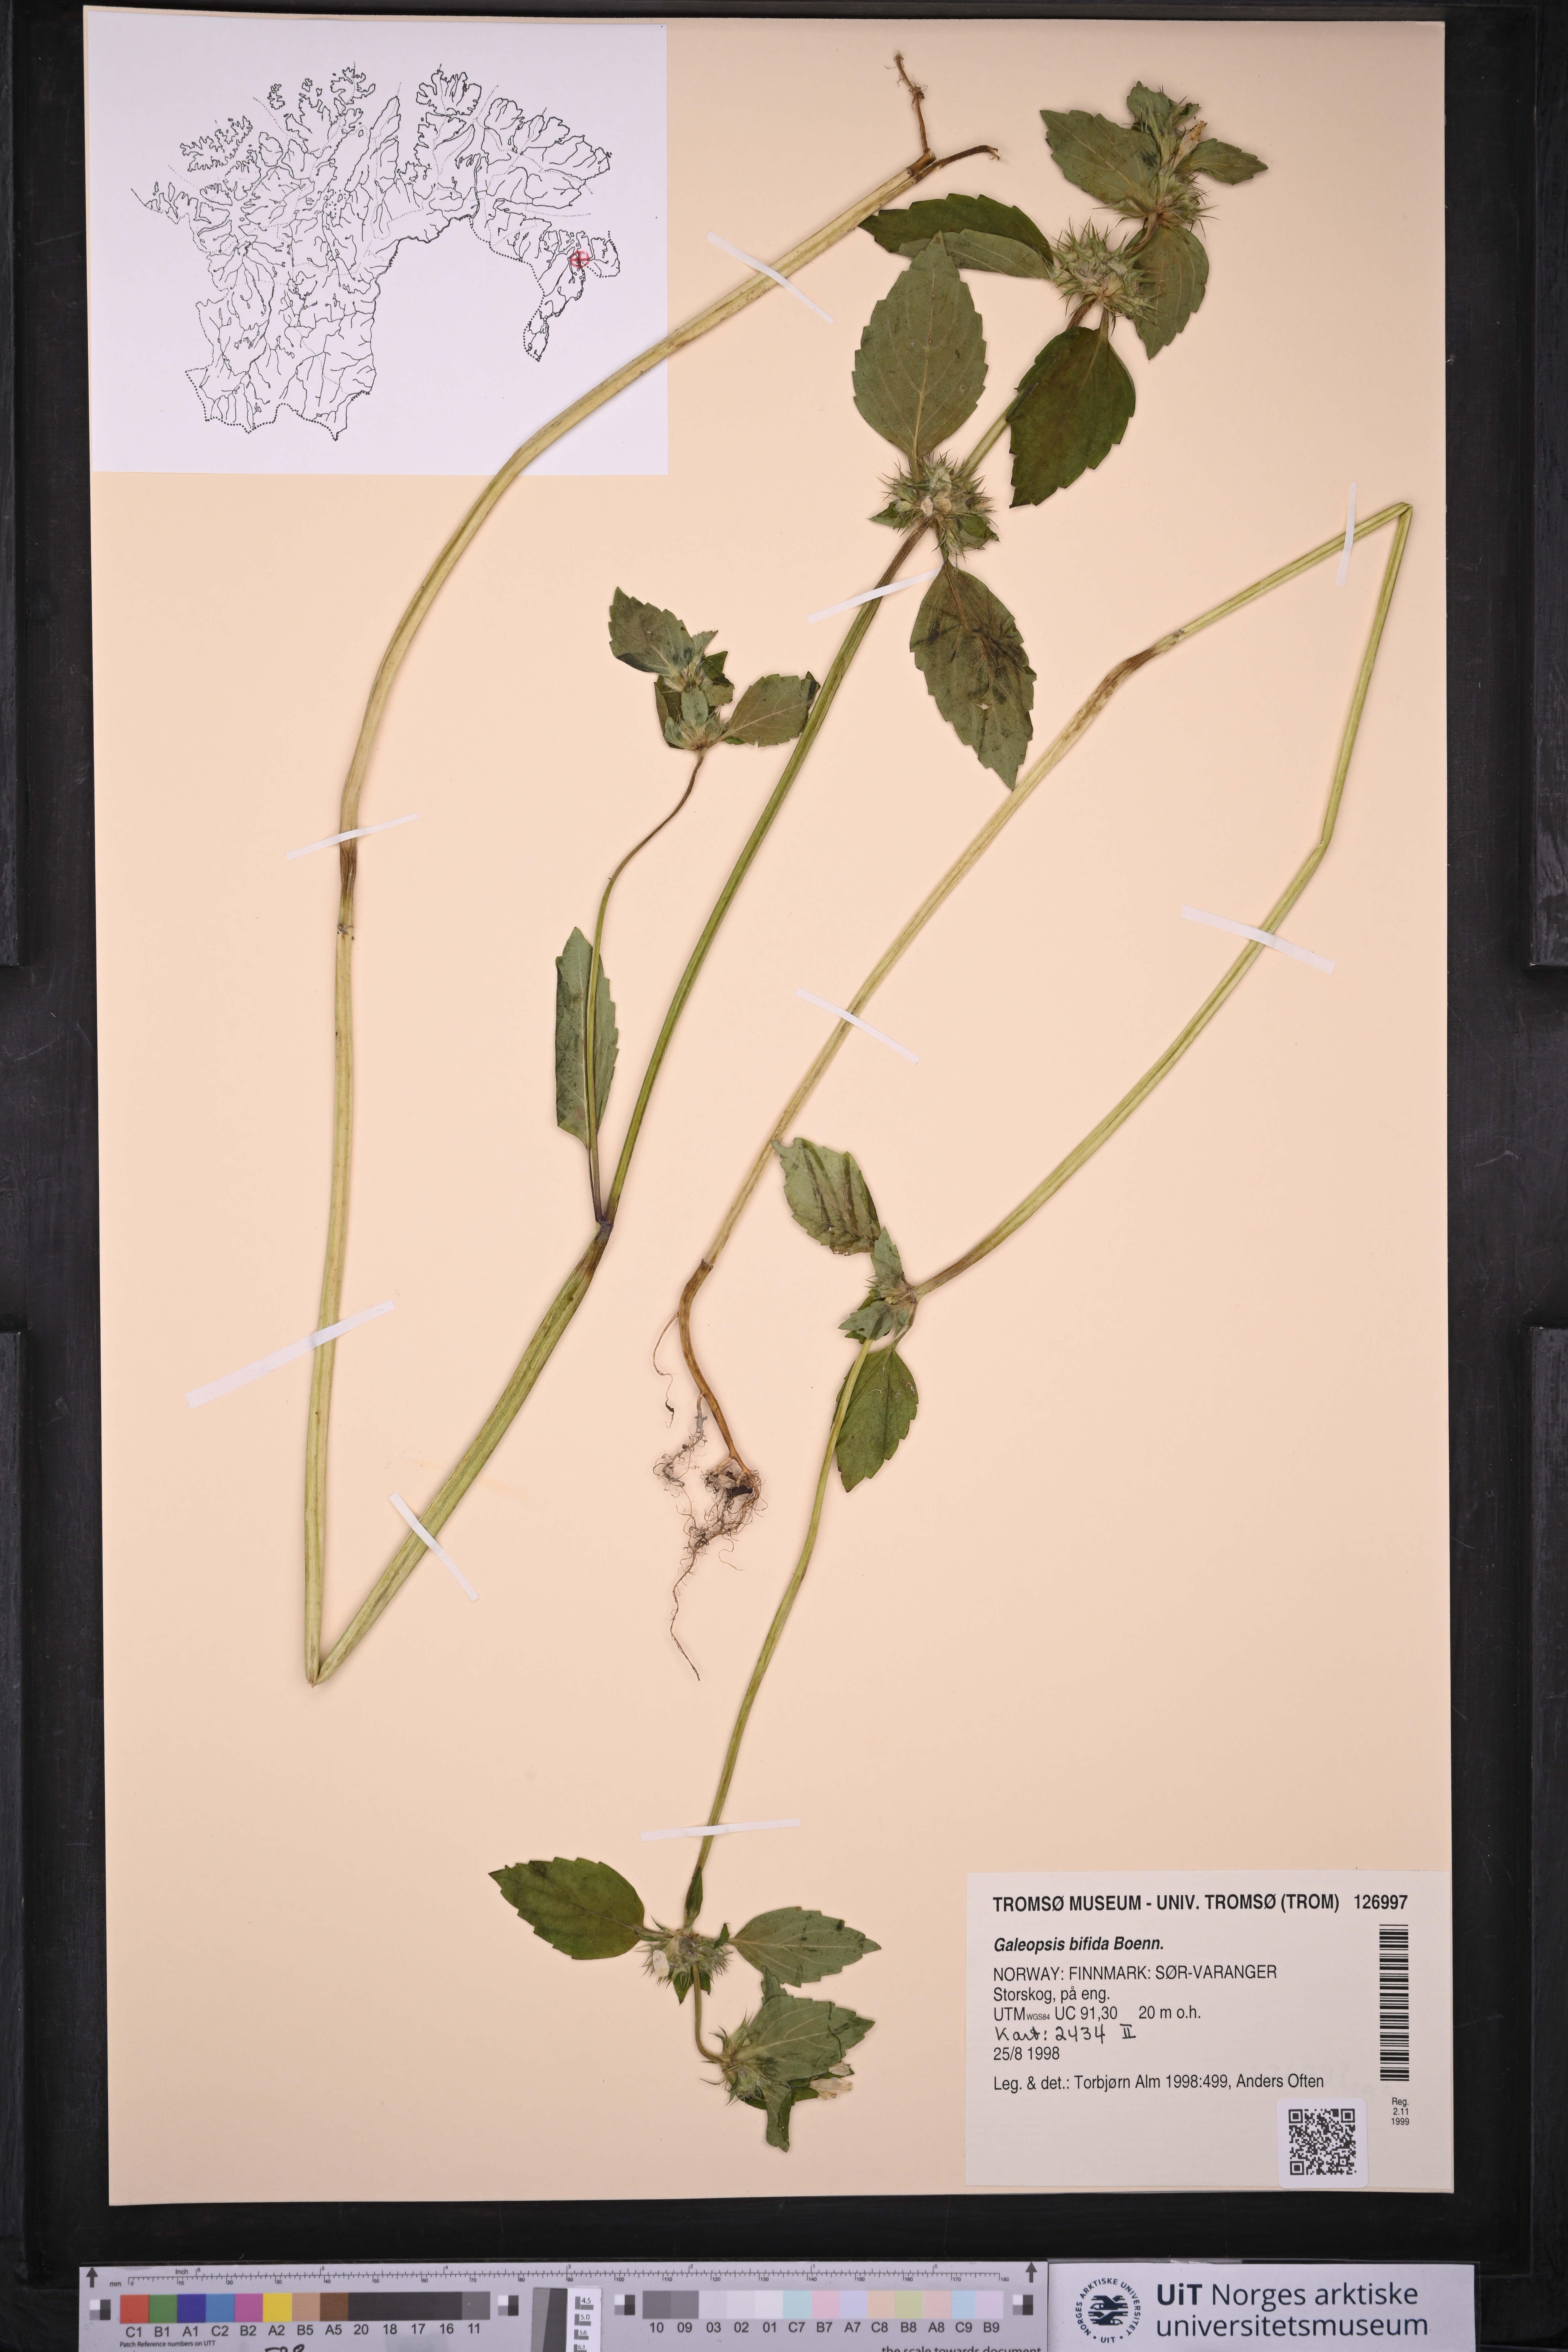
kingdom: Plantae
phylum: Tracheophyta
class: Magnoliopsida
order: Lamiales
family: Lamiaceae
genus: Galeopsis
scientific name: Galeopsis bifida
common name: Bifid hemp-nettle
